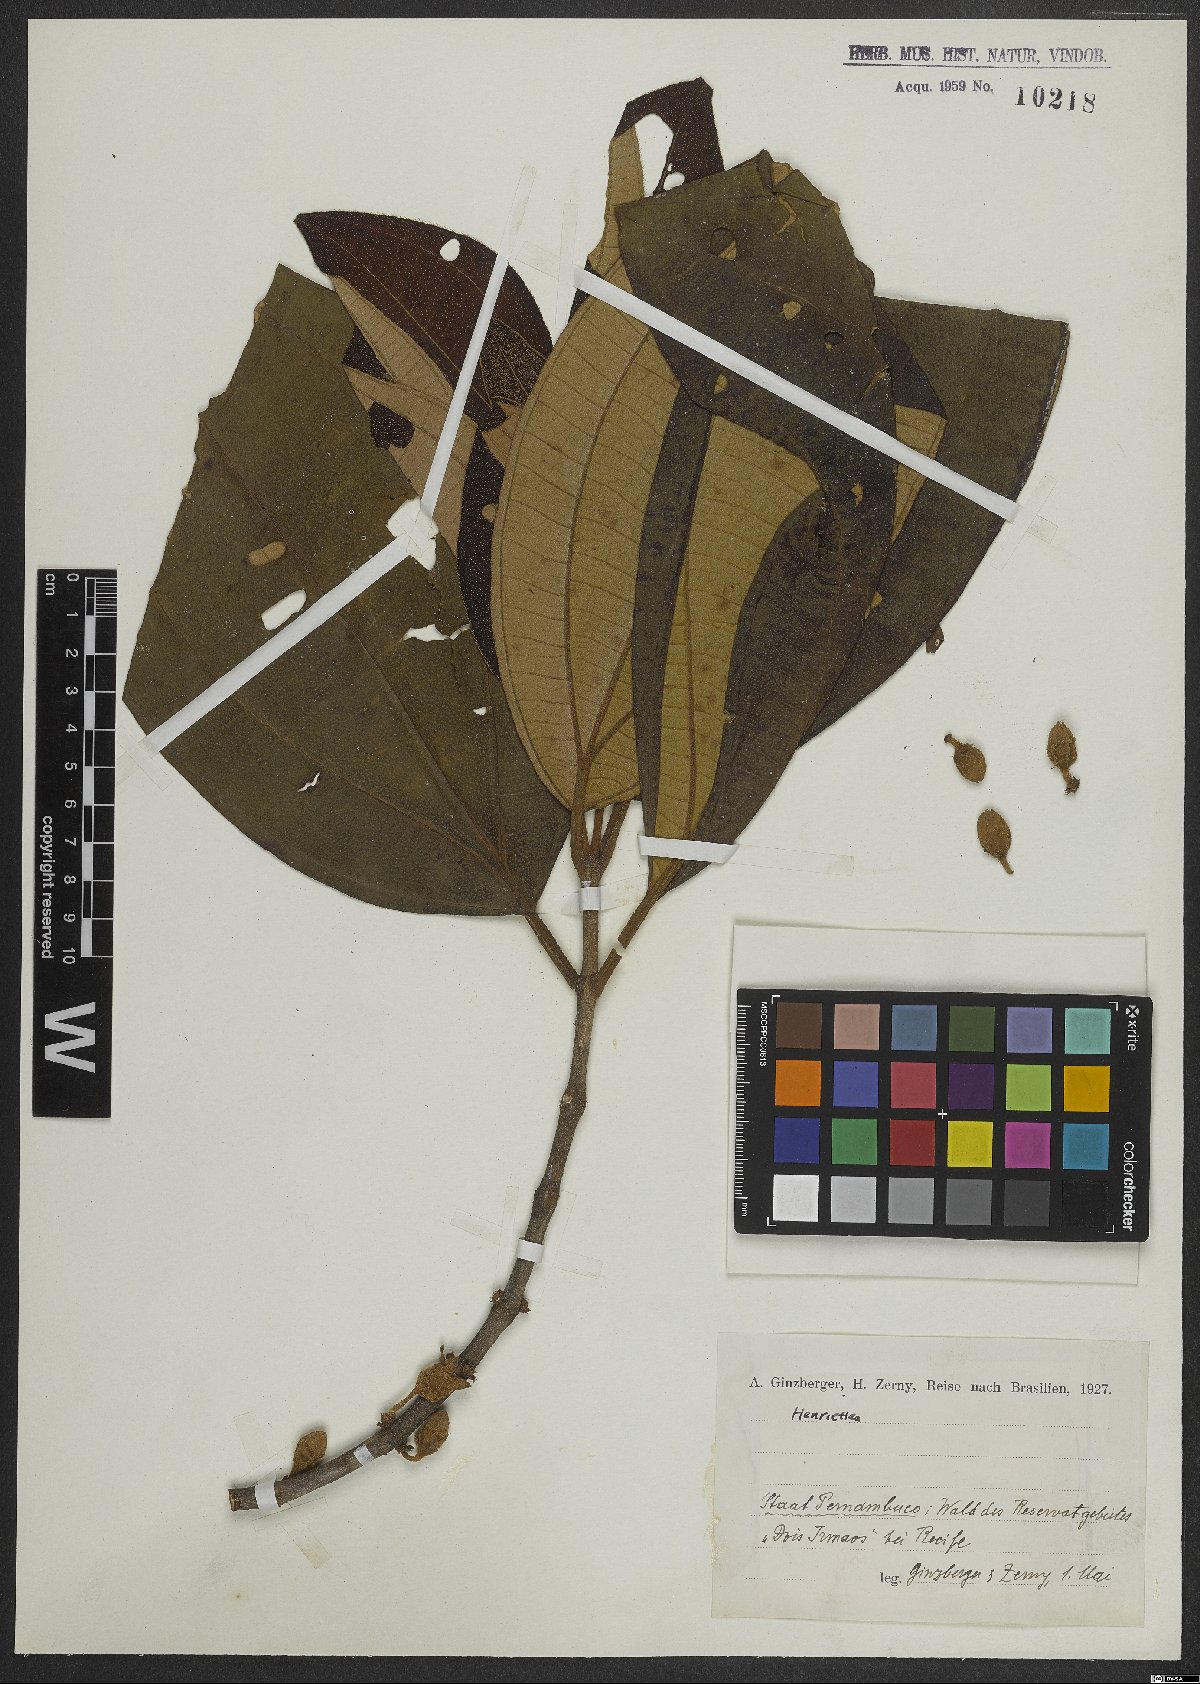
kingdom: Plantae
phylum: Tracheophyta
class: Magnoliopsida
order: Myrtales
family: Melastomataceae
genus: Henriettea
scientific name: Henriettea tuberculosa
